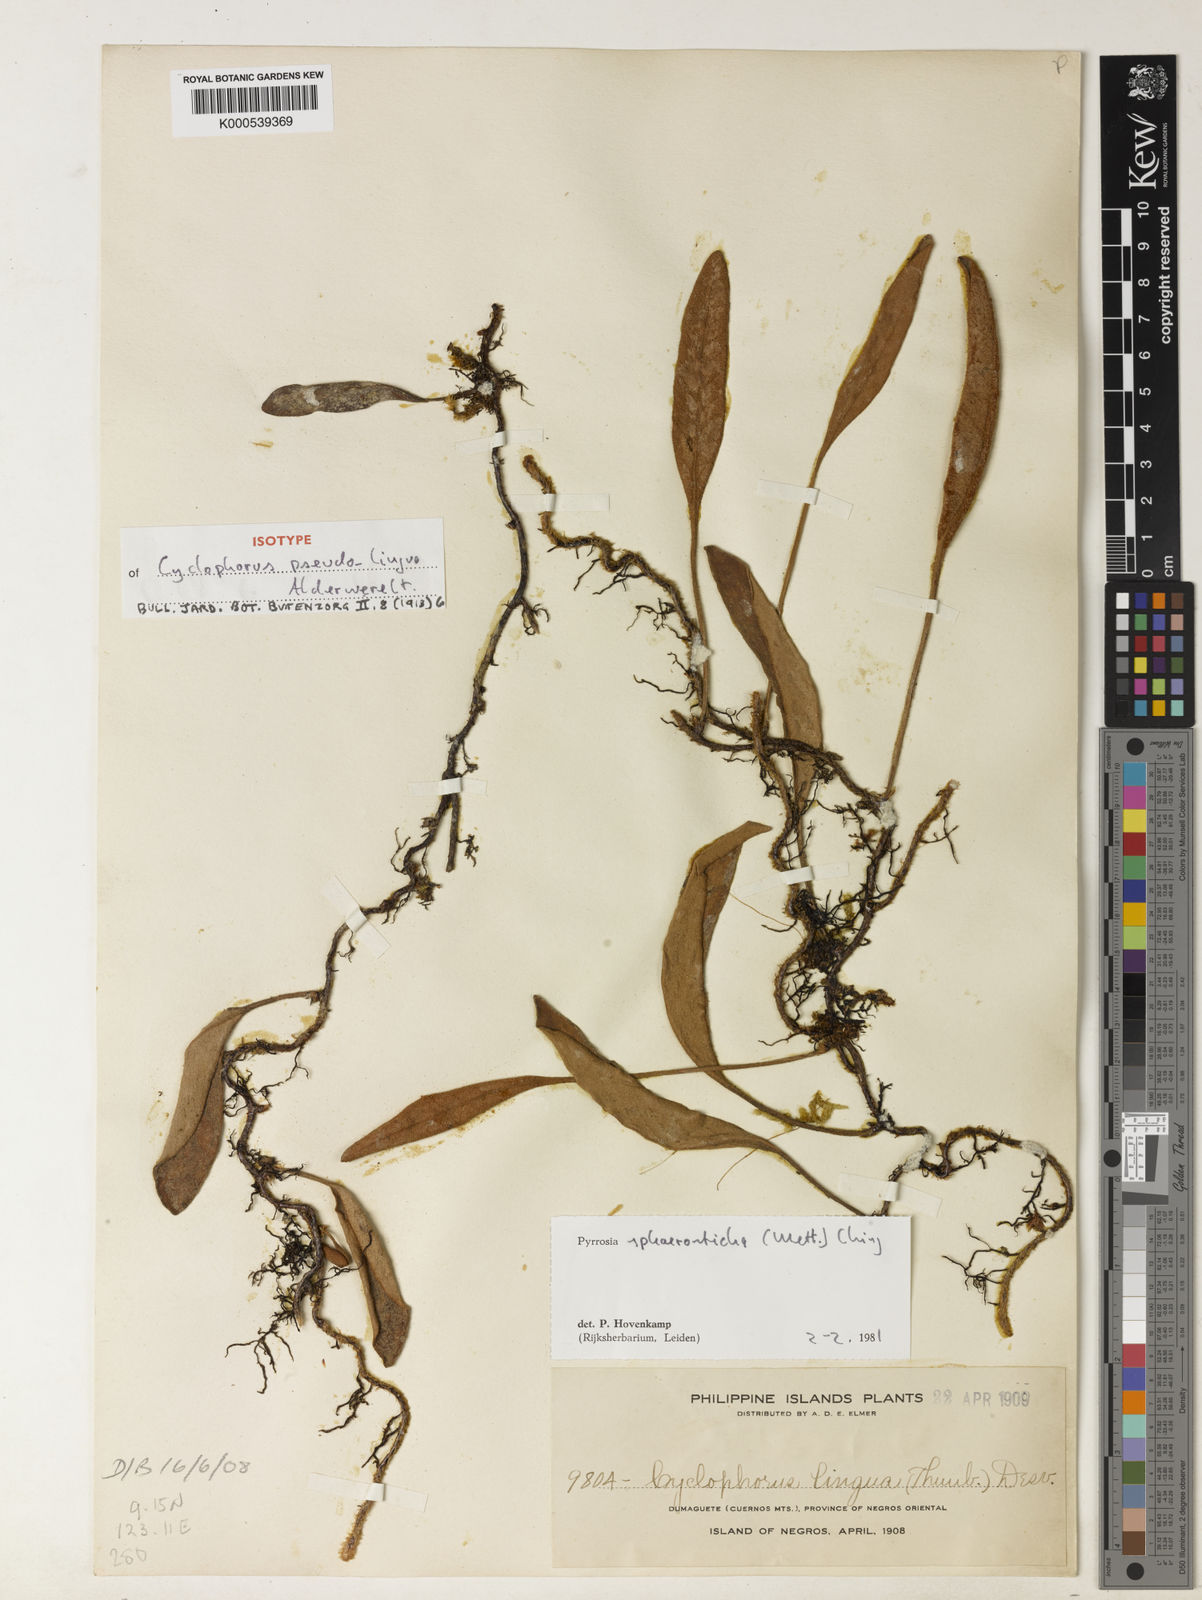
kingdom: Plantae
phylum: Tracheophyta
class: Polypodiopsida
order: Polypodiales
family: Polypodiaceae
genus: Pyrrosia
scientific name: Pyrrosia sphaerosticha
